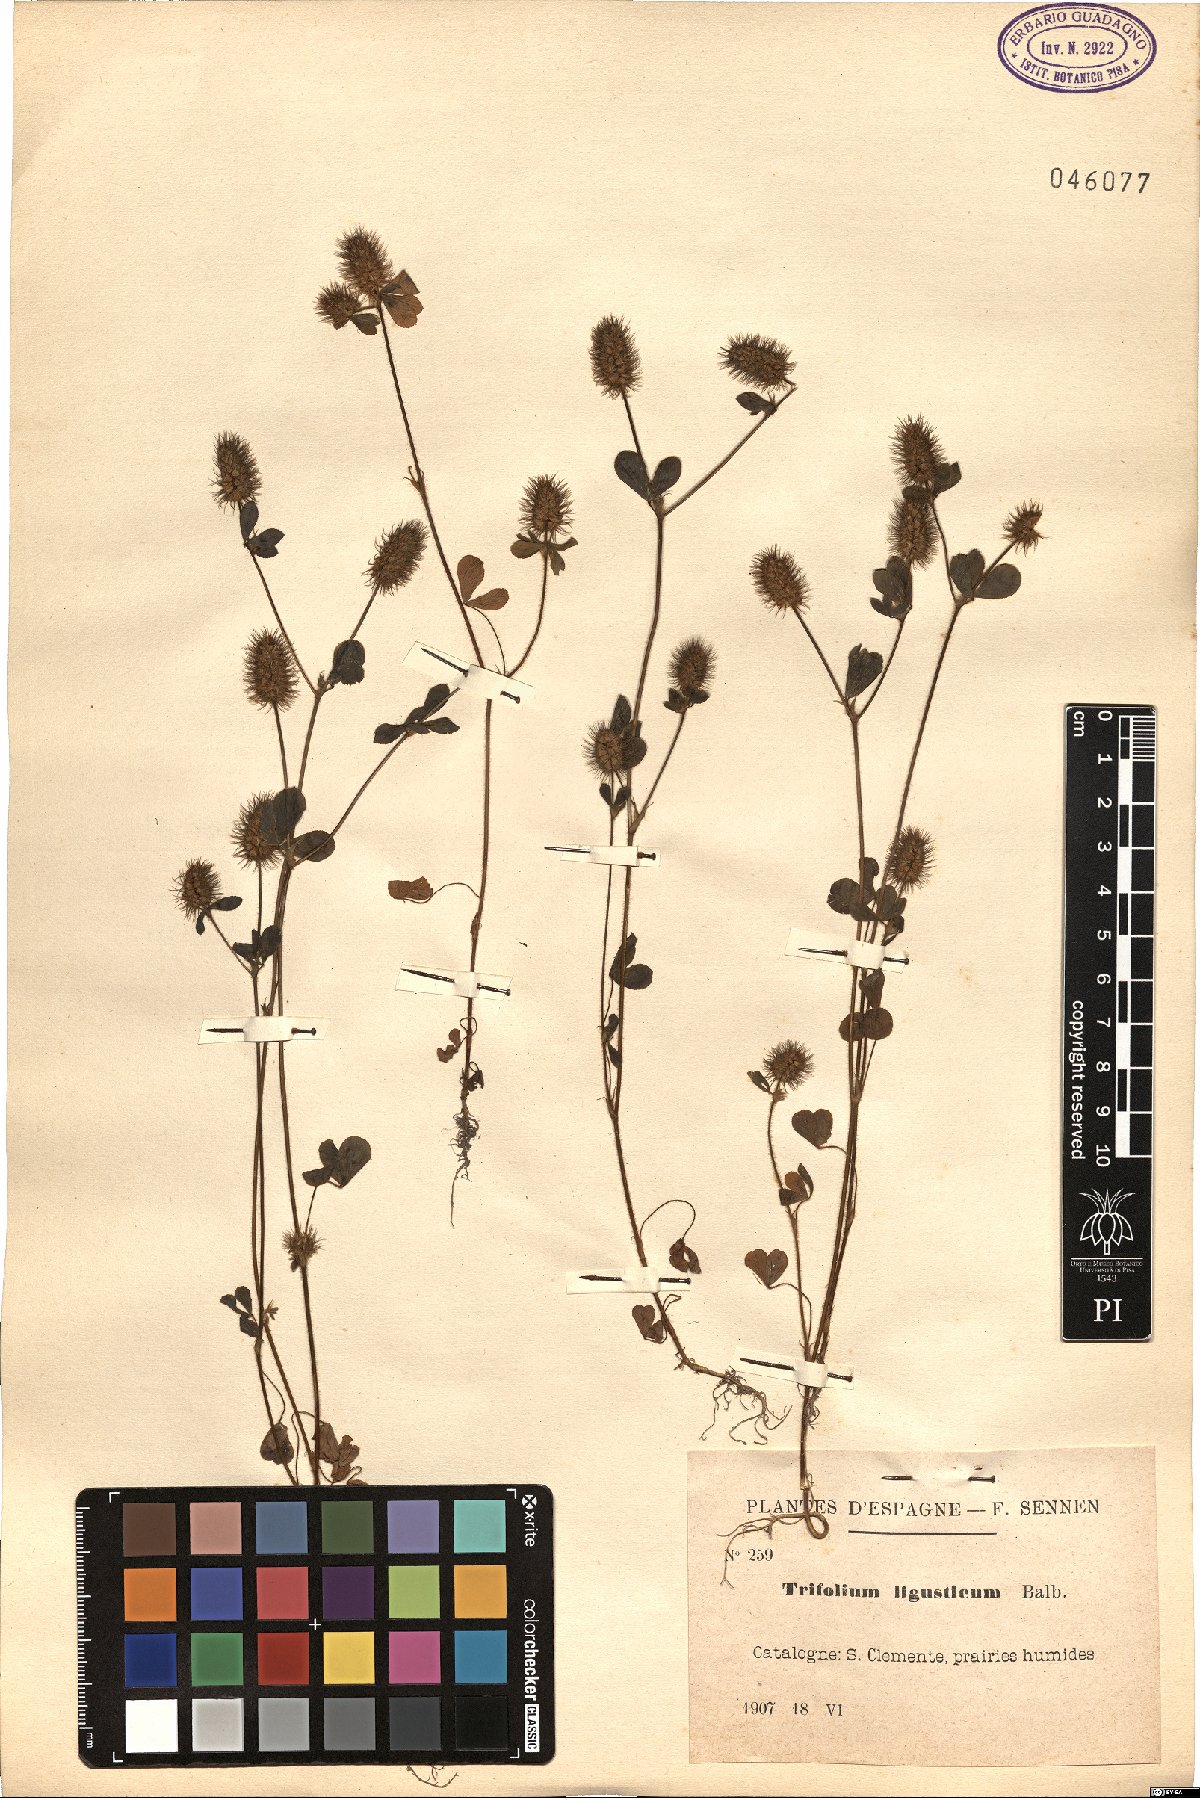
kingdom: Plantae
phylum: Tracheophyta
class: Magnoliopsida
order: Fabales
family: Fabaceae
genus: Trifolium
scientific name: Trifolium ligusticum
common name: Ligurian clover
